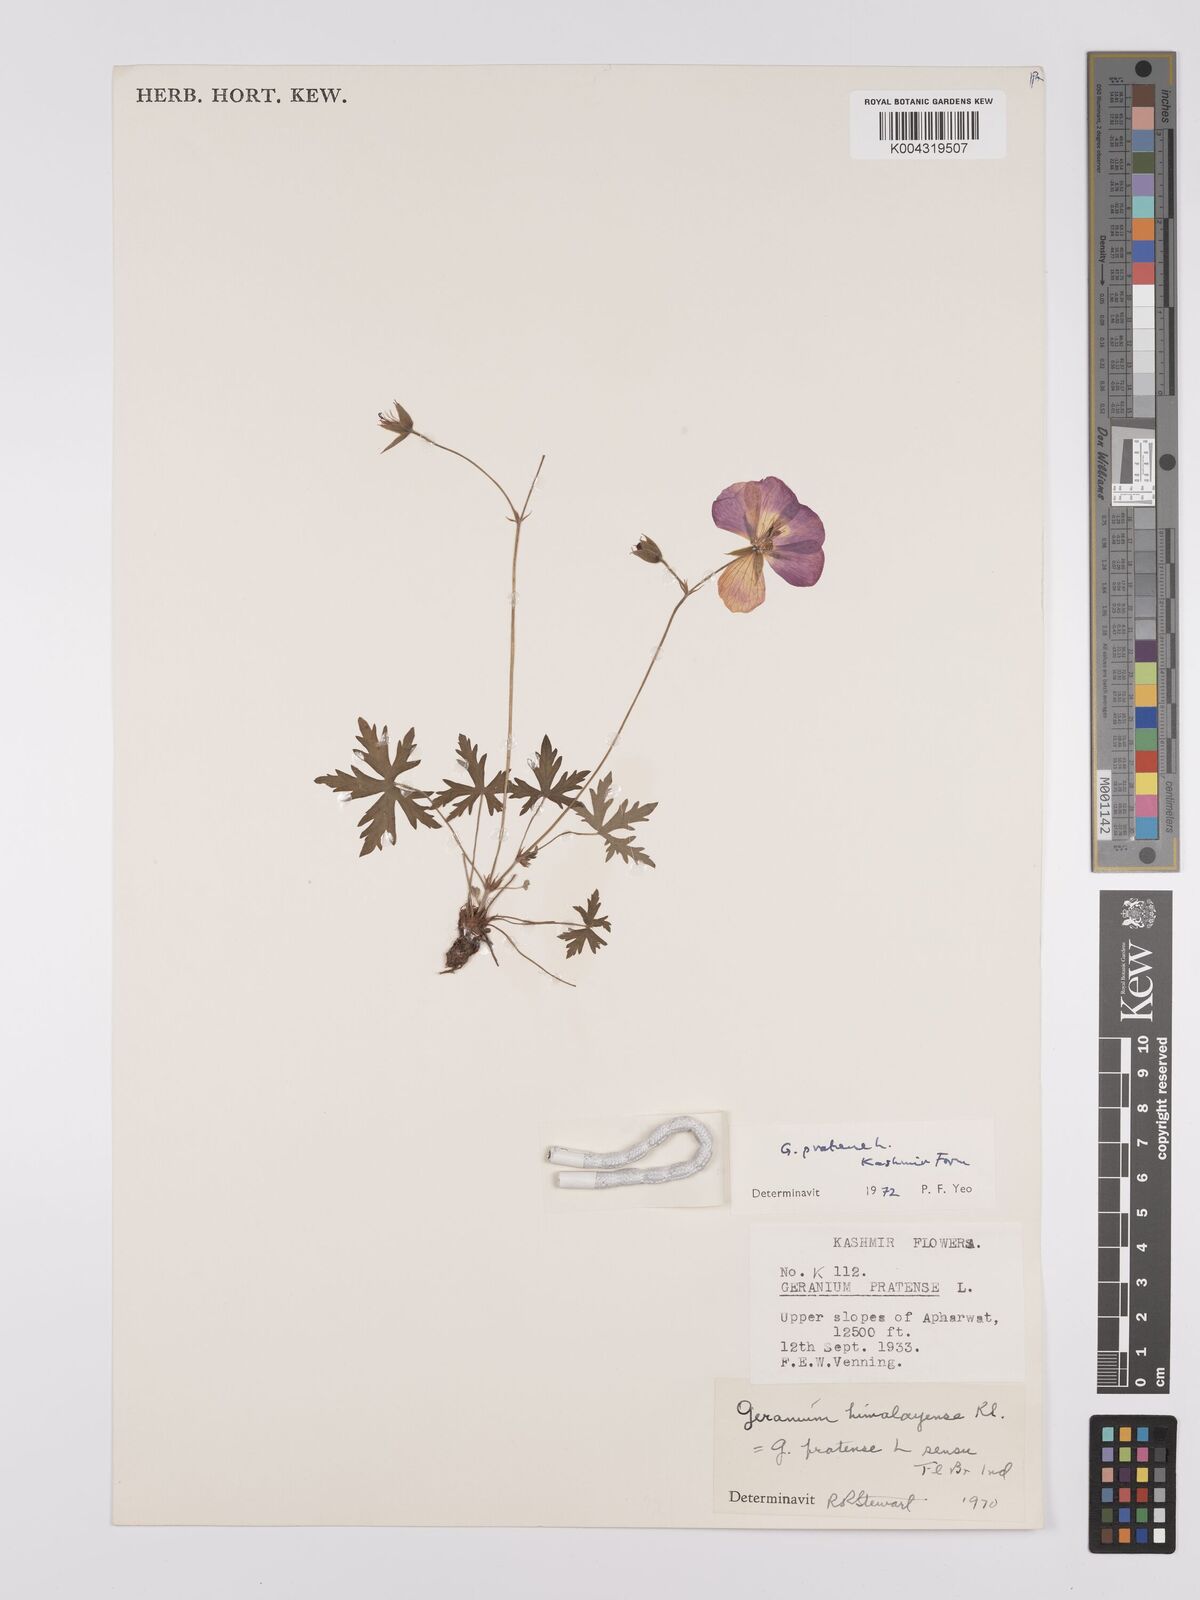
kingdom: Plantae
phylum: Tracheophyta
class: Magnoliopsida
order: Geraniales
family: Geraniaceae
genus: Geranium
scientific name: Geranium clarkei
